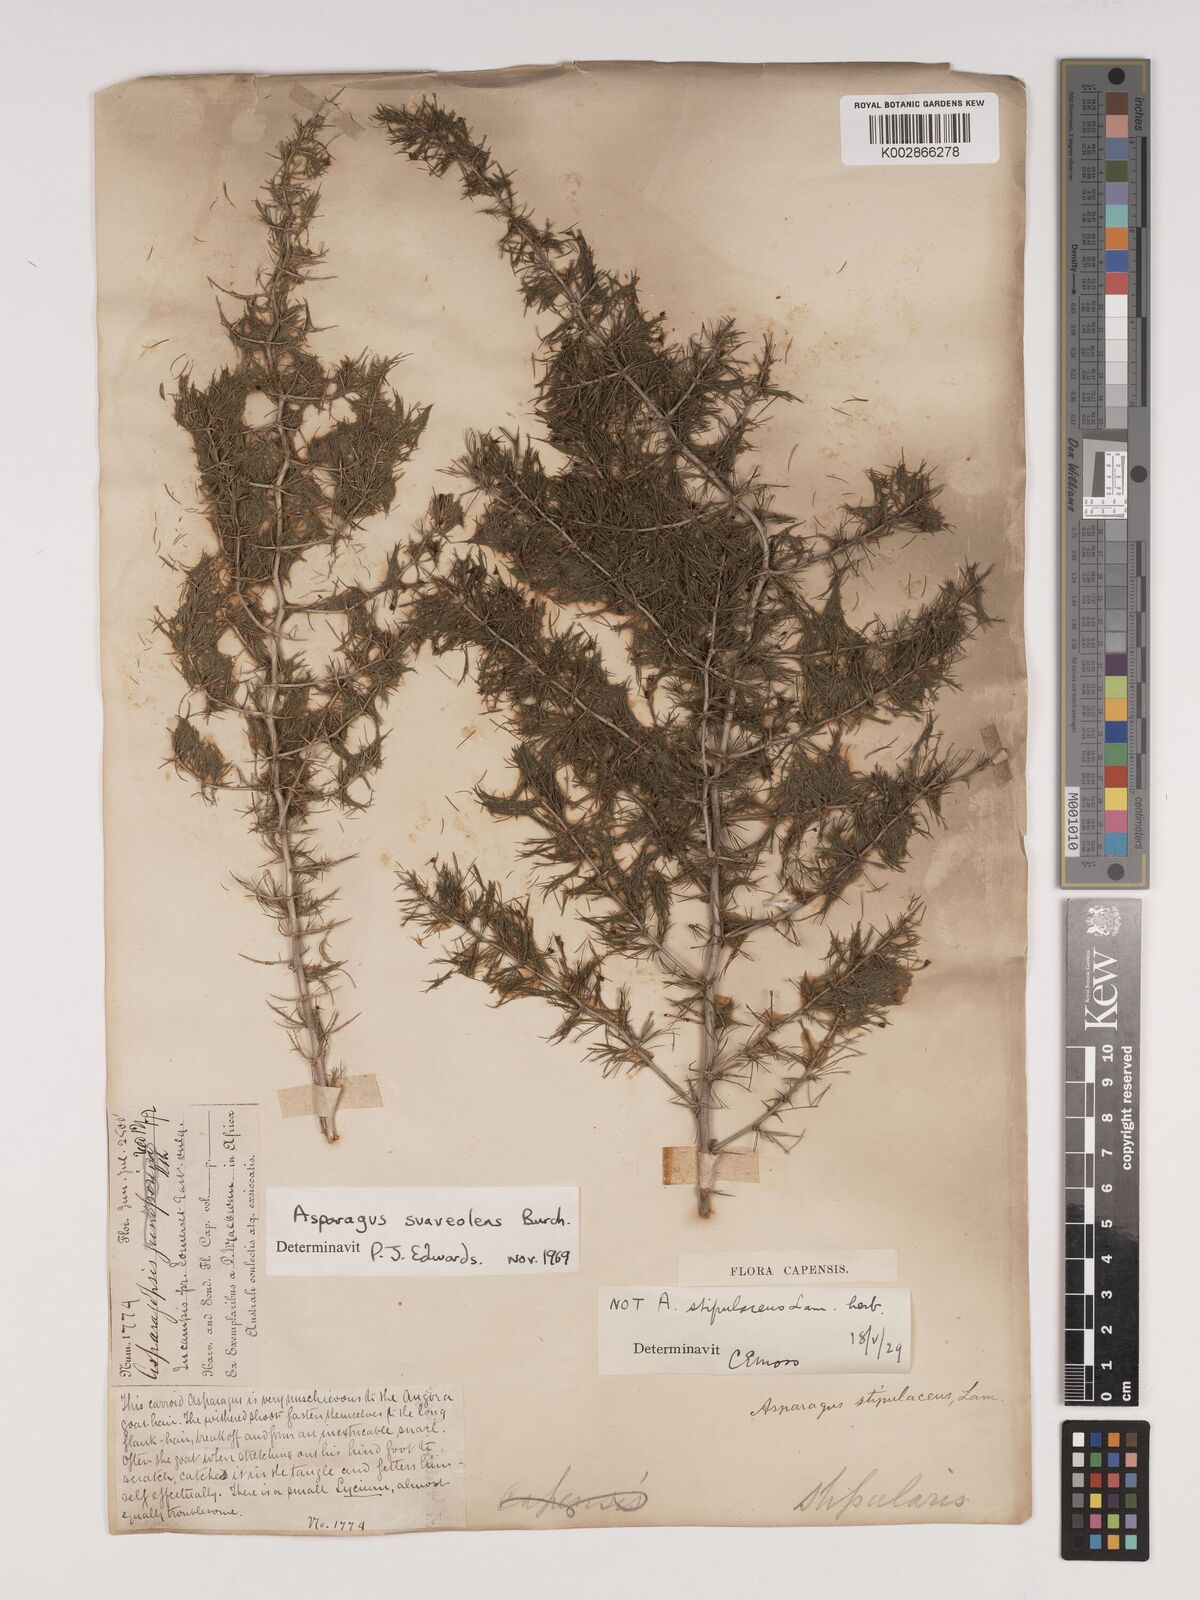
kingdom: Plantae
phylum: Tracheophyta
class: Liliopsida
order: Asparagales
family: Asparagaceae
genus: Asparagus
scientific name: Asparagus suaveolens
